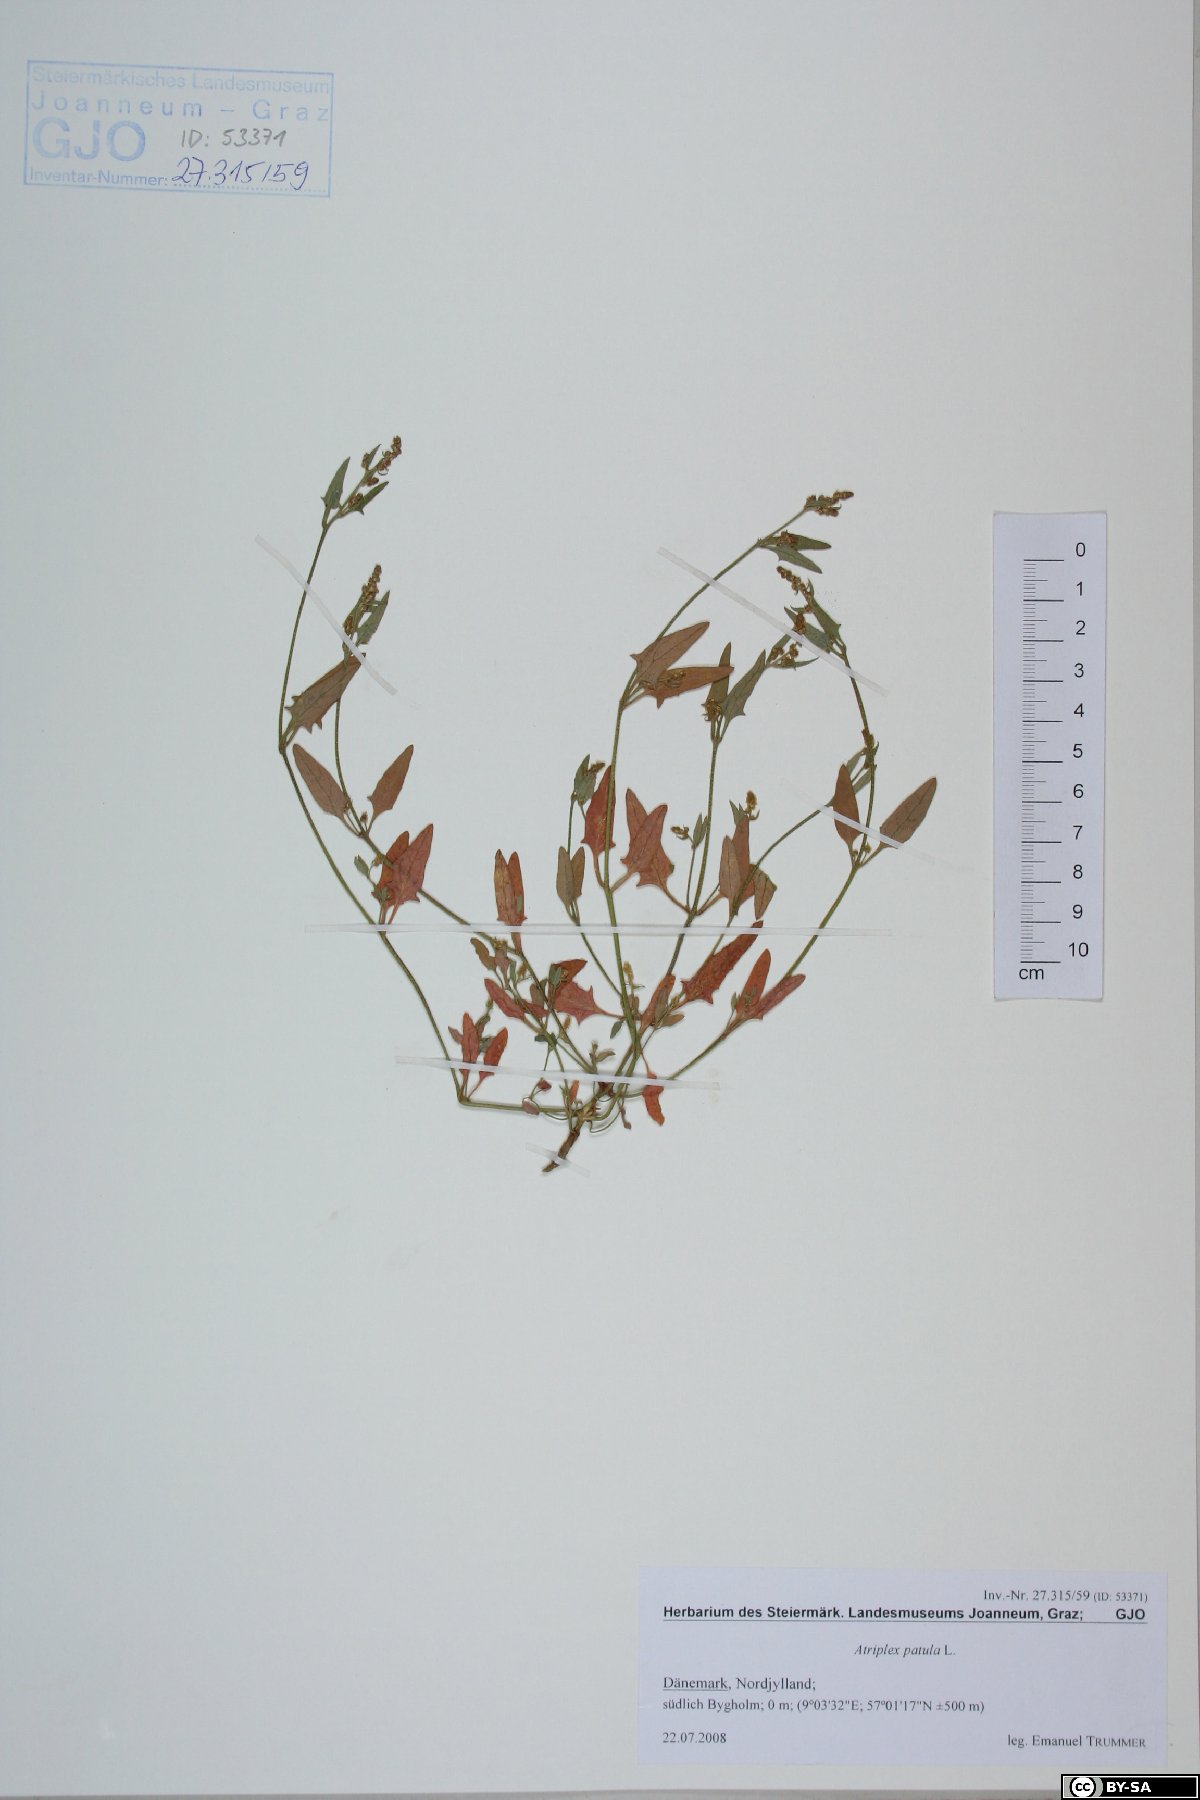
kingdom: Plantae
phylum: Tracheophyta
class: Magnoliopsida
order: Caryophyllales
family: Amaranthaceae
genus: Atriplex
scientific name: Atriplex patula
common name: Common orache
